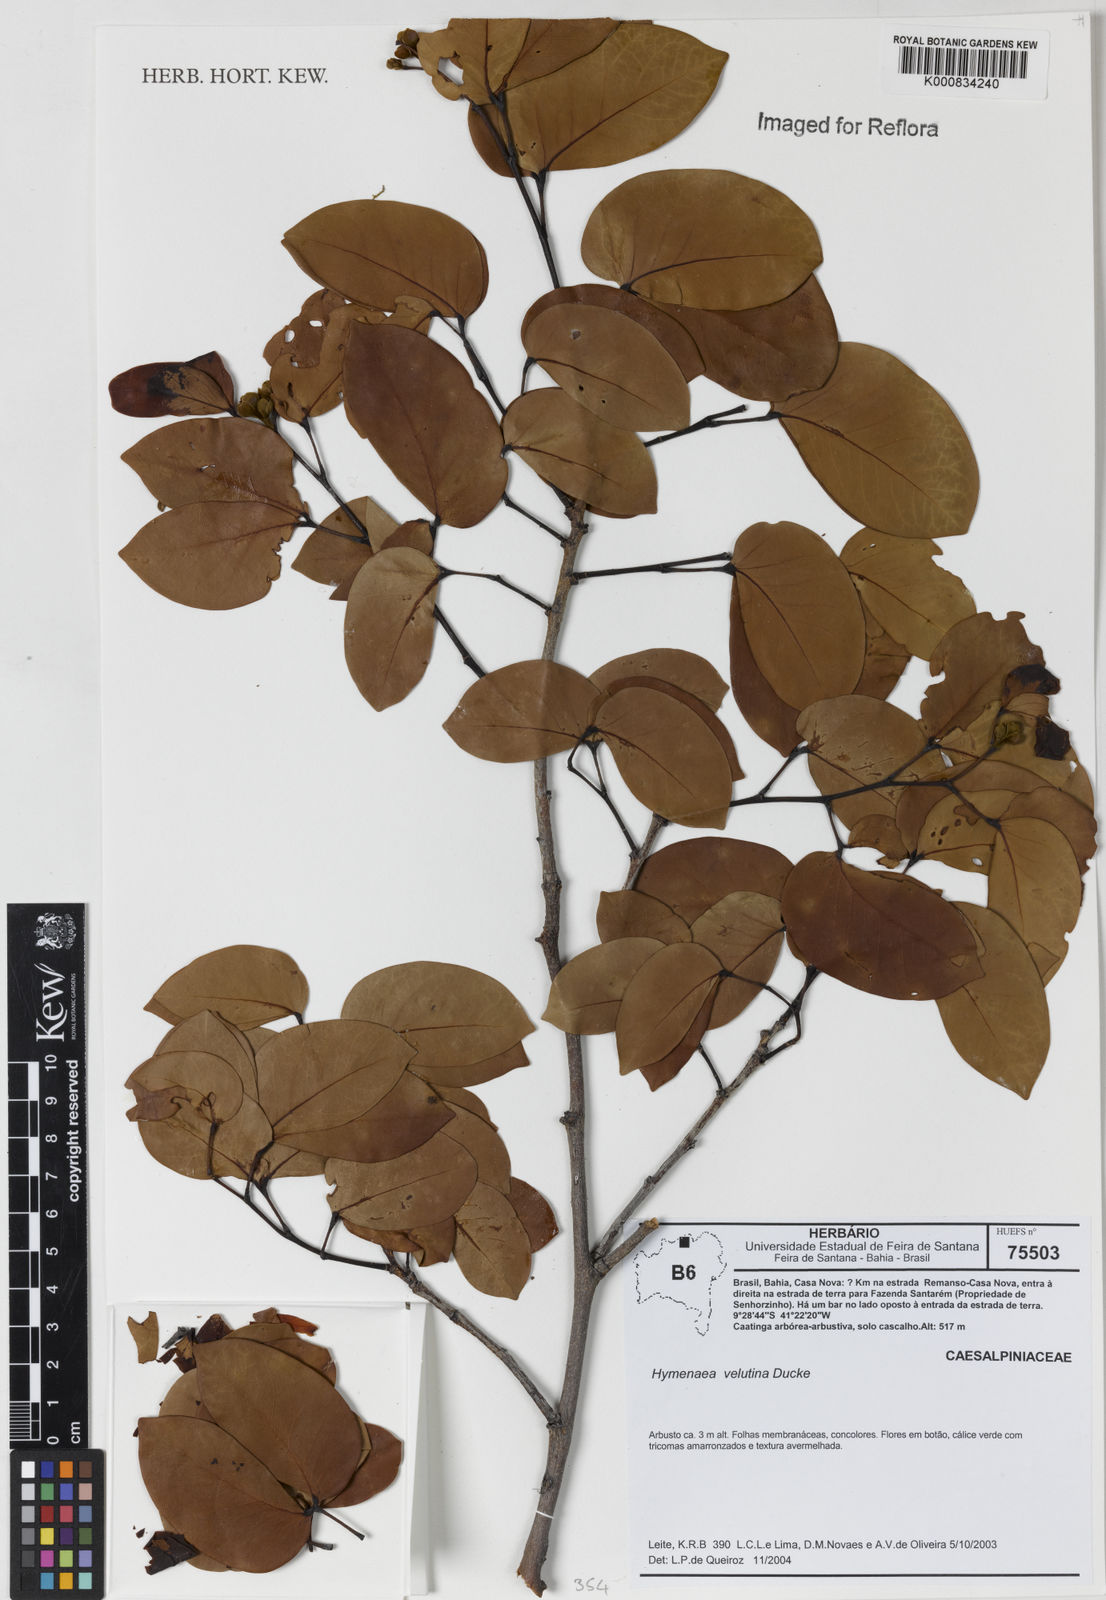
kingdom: Plantae
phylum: Tracheophyta
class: Magnoliopsida
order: Fabales
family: Fabaceae
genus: Hymenaea
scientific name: Hymenaea velutina
